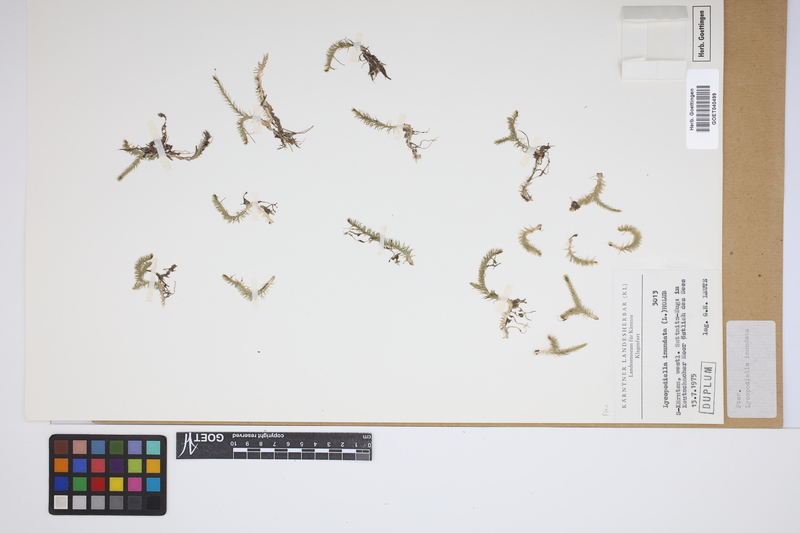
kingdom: Plantae
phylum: Tracheophyta
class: Lycopodiopsida
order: Lycopodiales
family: Lycopodiaceae
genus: Lycopodiella
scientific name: Lycopodiella inundata
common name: Marsh clubmoss
